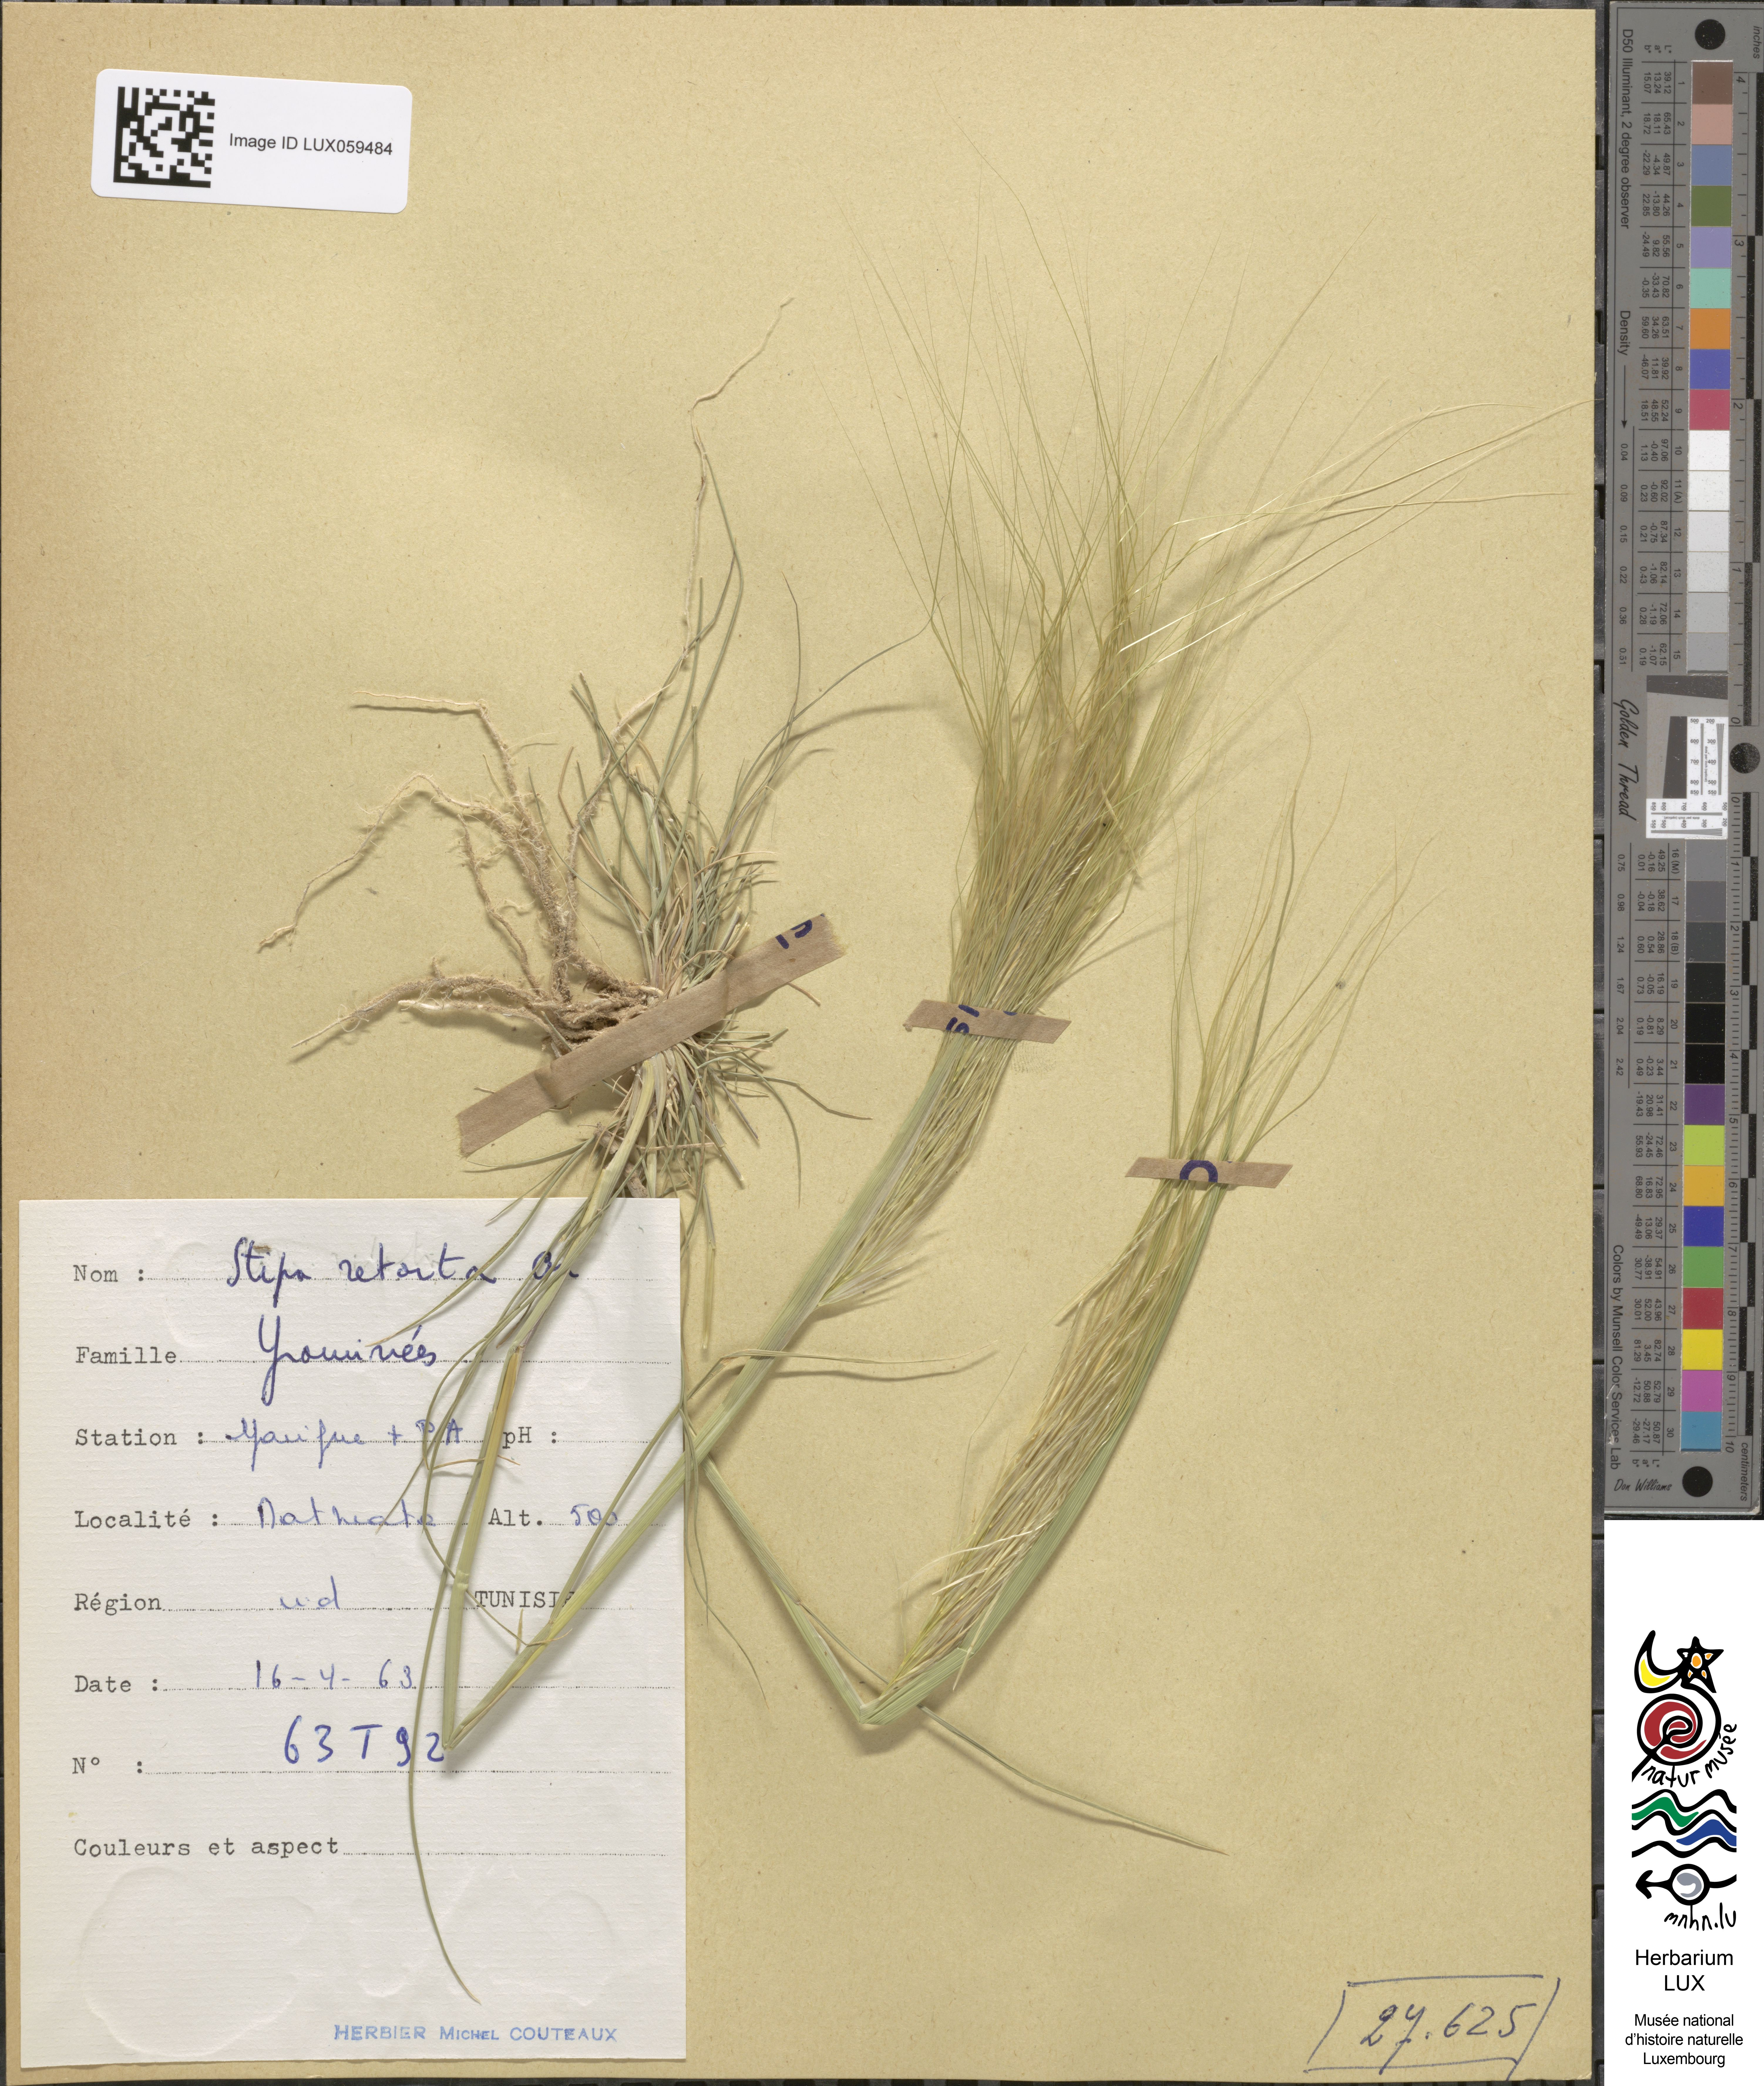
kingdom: Plantae
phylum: Tracheophyta
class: Liliopsida
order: Poales
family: Poaceae
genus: Stipellula
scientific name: Stipellula capensis
